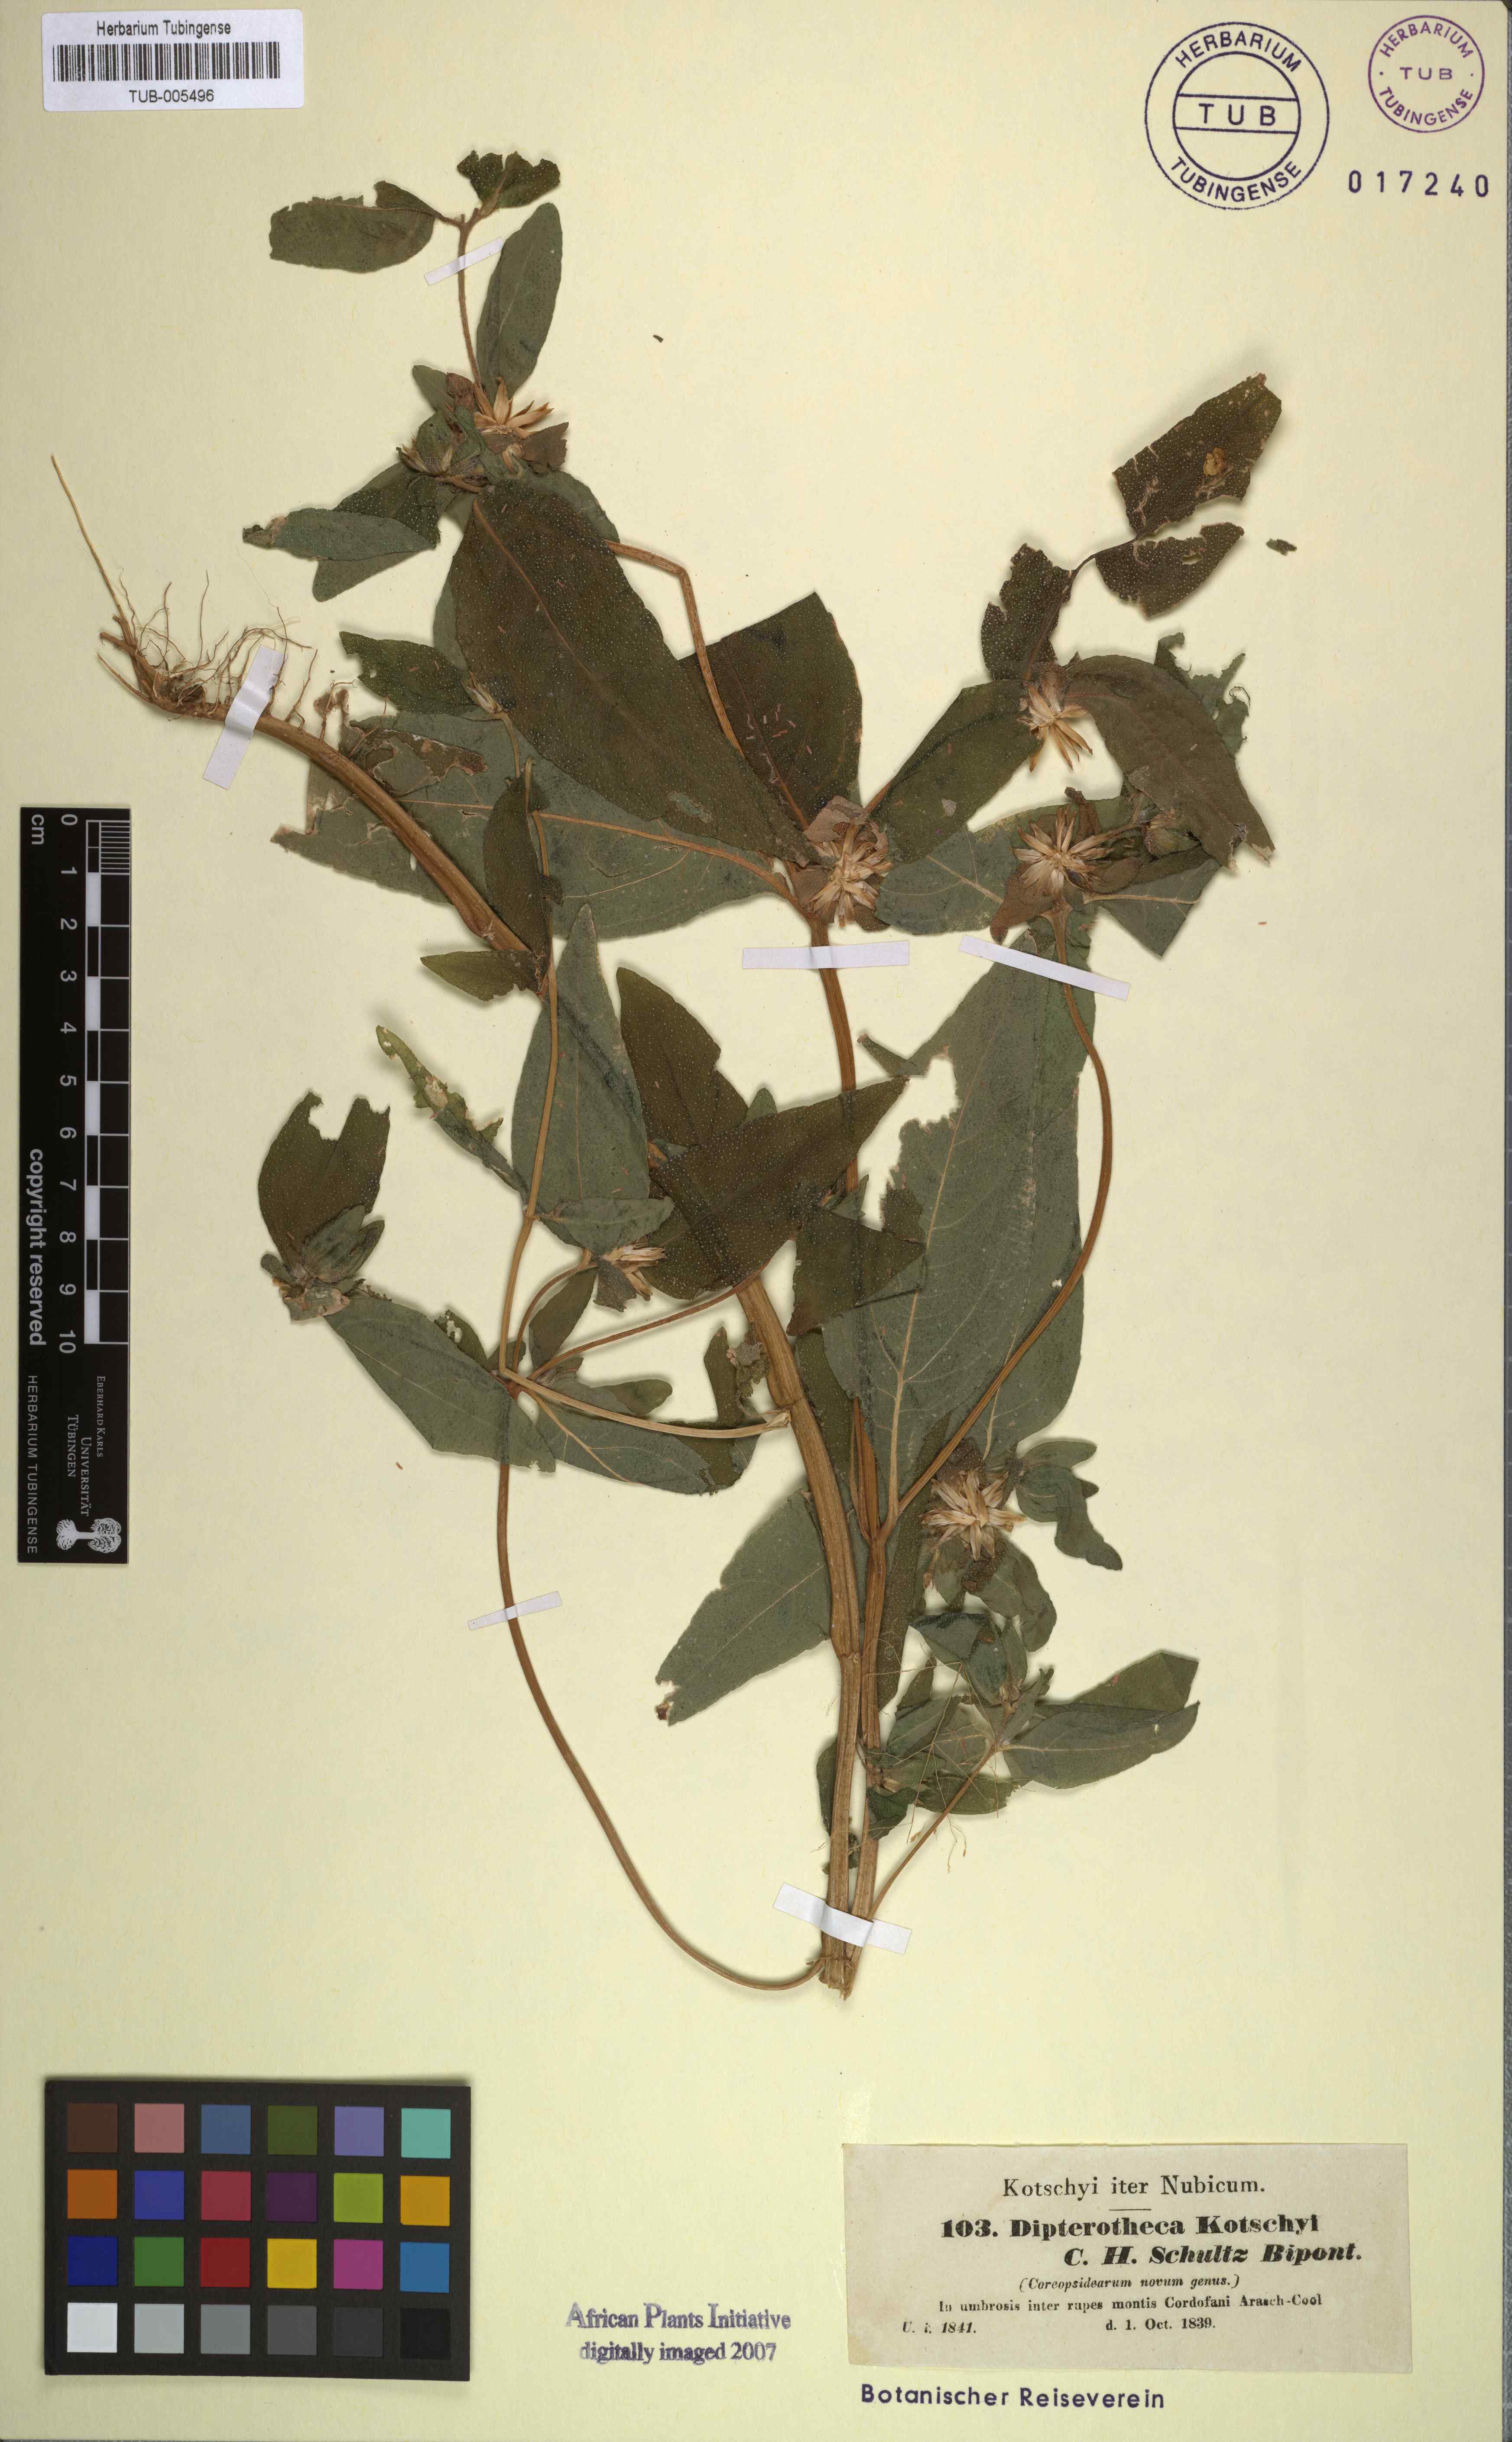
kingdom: Plantae
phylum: Tracheophyta
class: Magnoliopsida
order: Asterales
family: Asteraceae
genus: Aspilia
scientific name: Aspilia kotschyi
